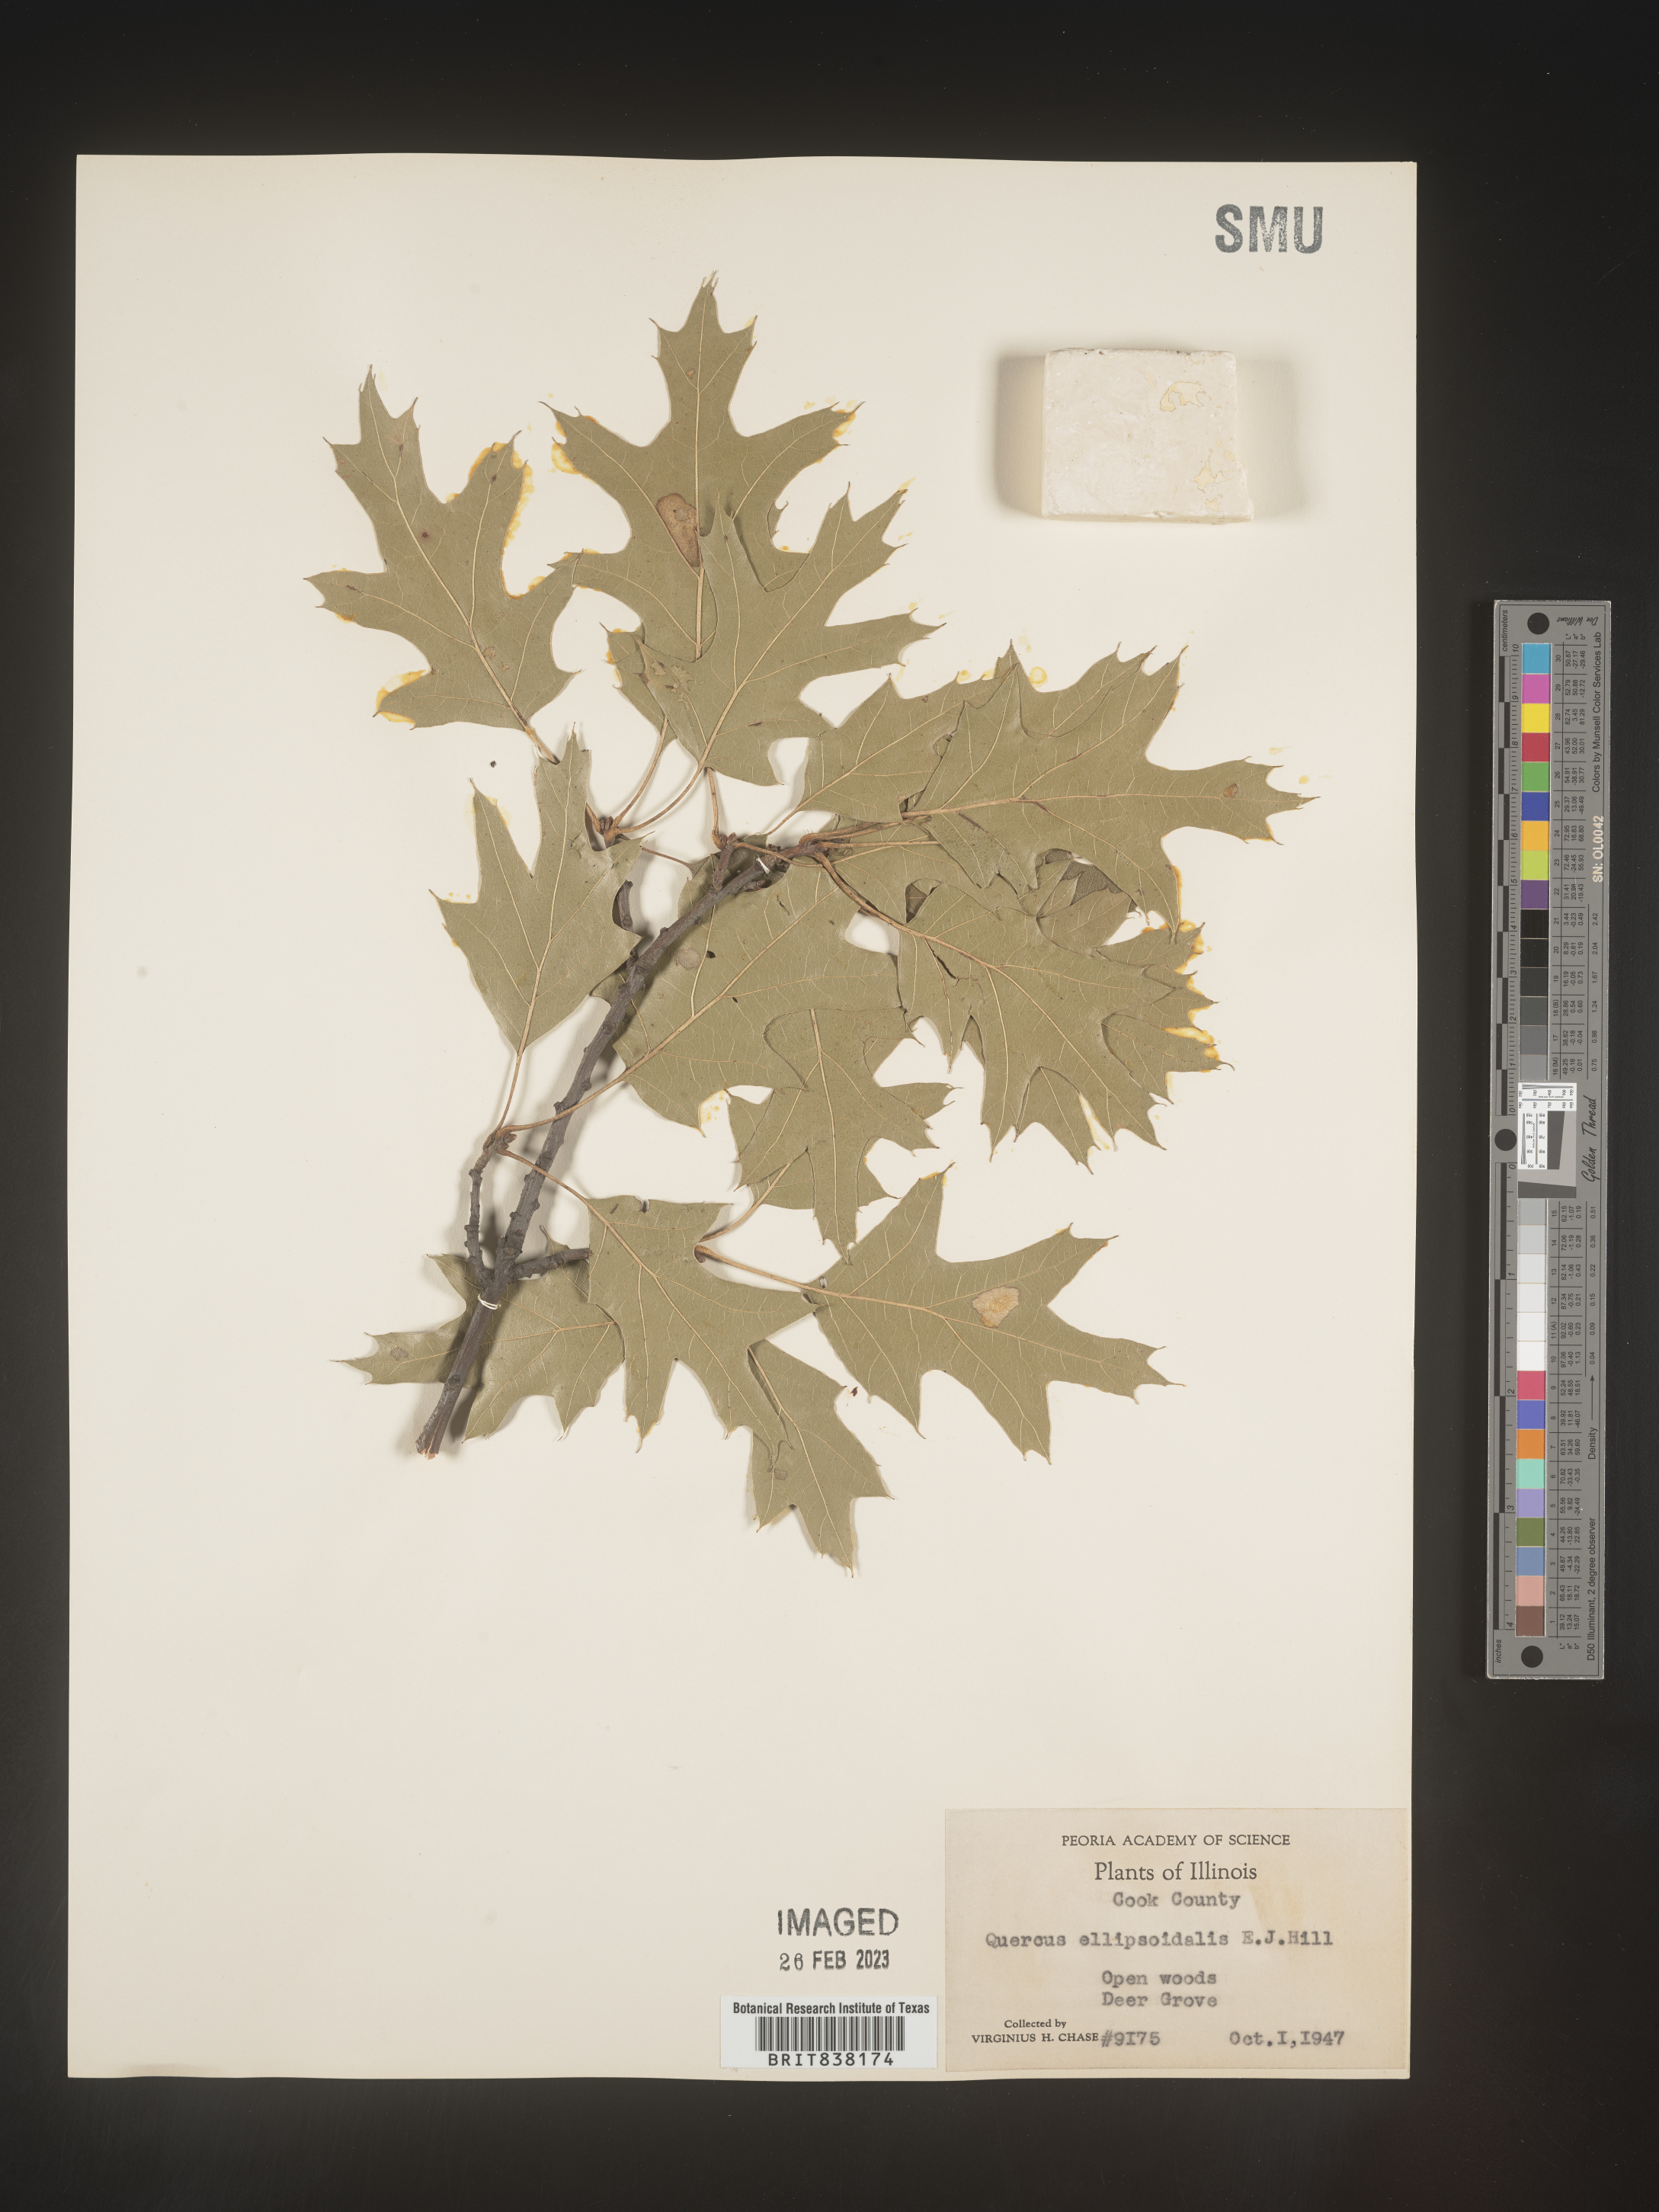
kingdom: Plantae
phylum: Tracheophyta
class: Magnoliopsida
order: Fagales
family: Fagaceae
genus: Quercus
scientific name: Quercus ellipsoidalis
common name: Hill's oak
